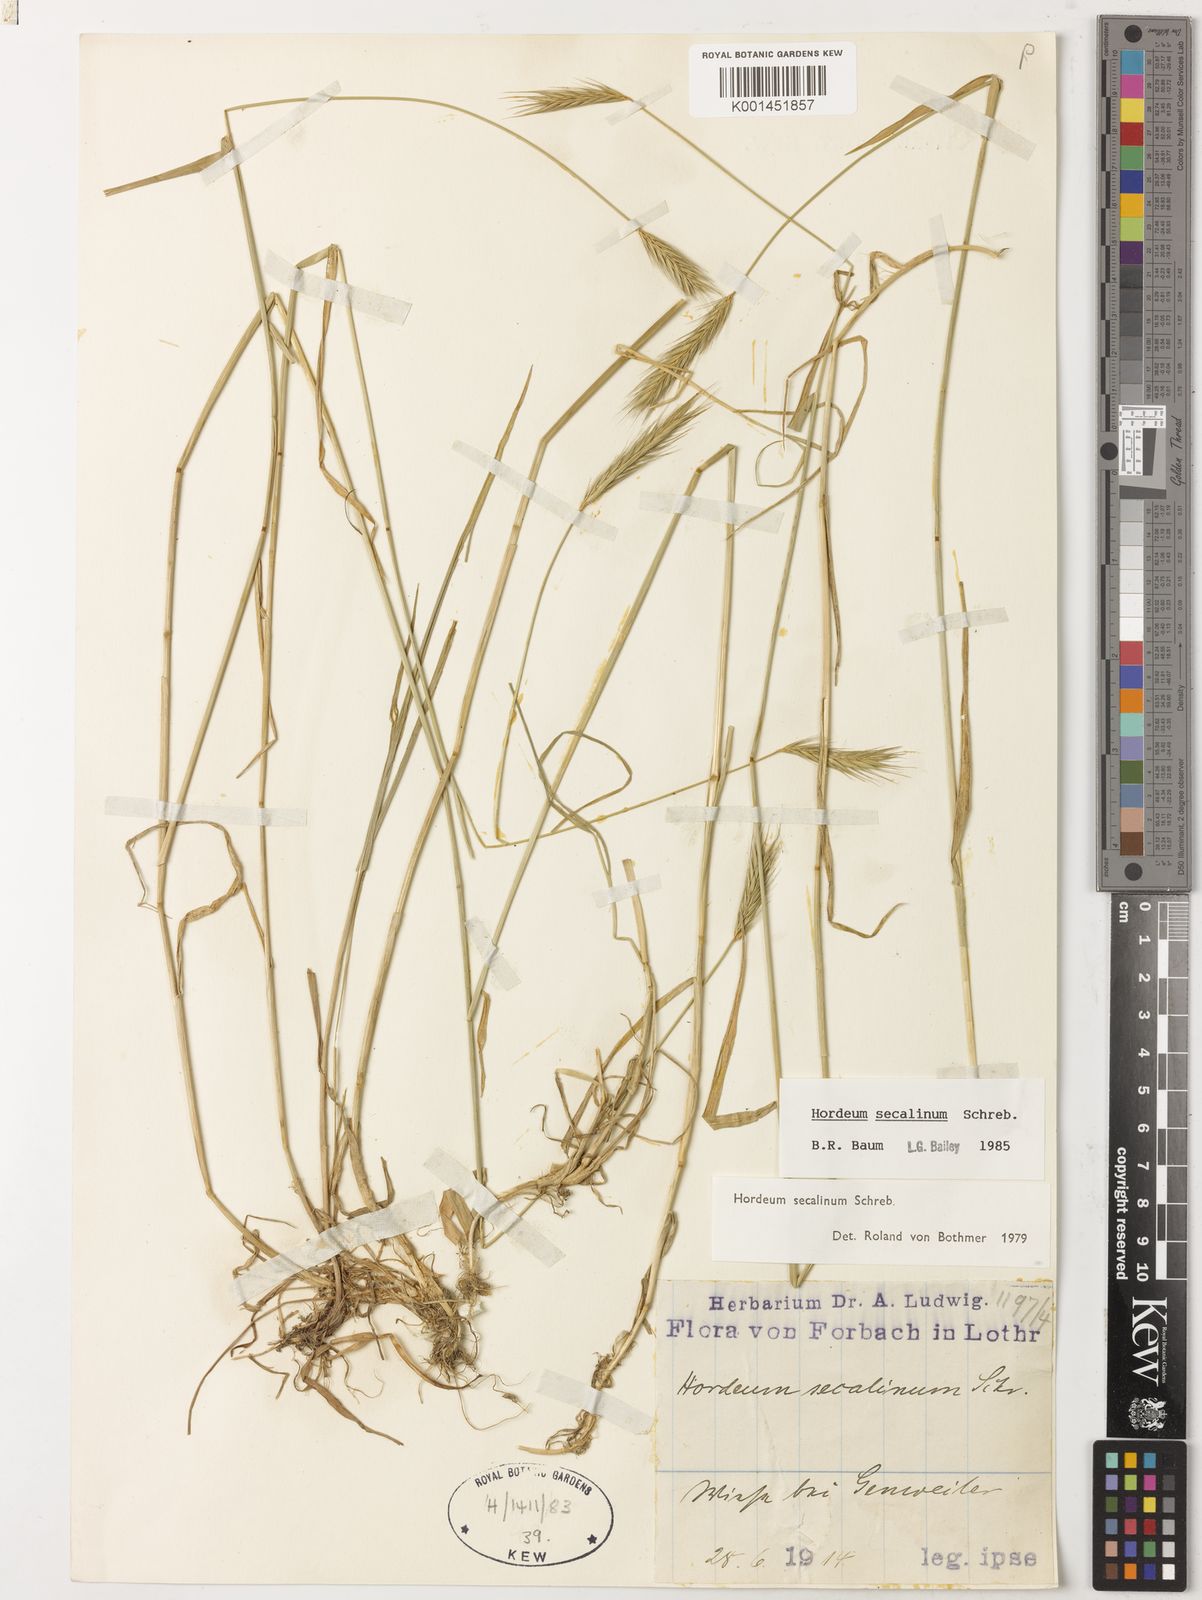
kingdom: Plantae
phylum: Tracheophyta
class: Liliopsida
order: Poales
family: Poaceae
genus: Hordeum
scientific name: Hordeum secalinum
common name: Meadow barley
